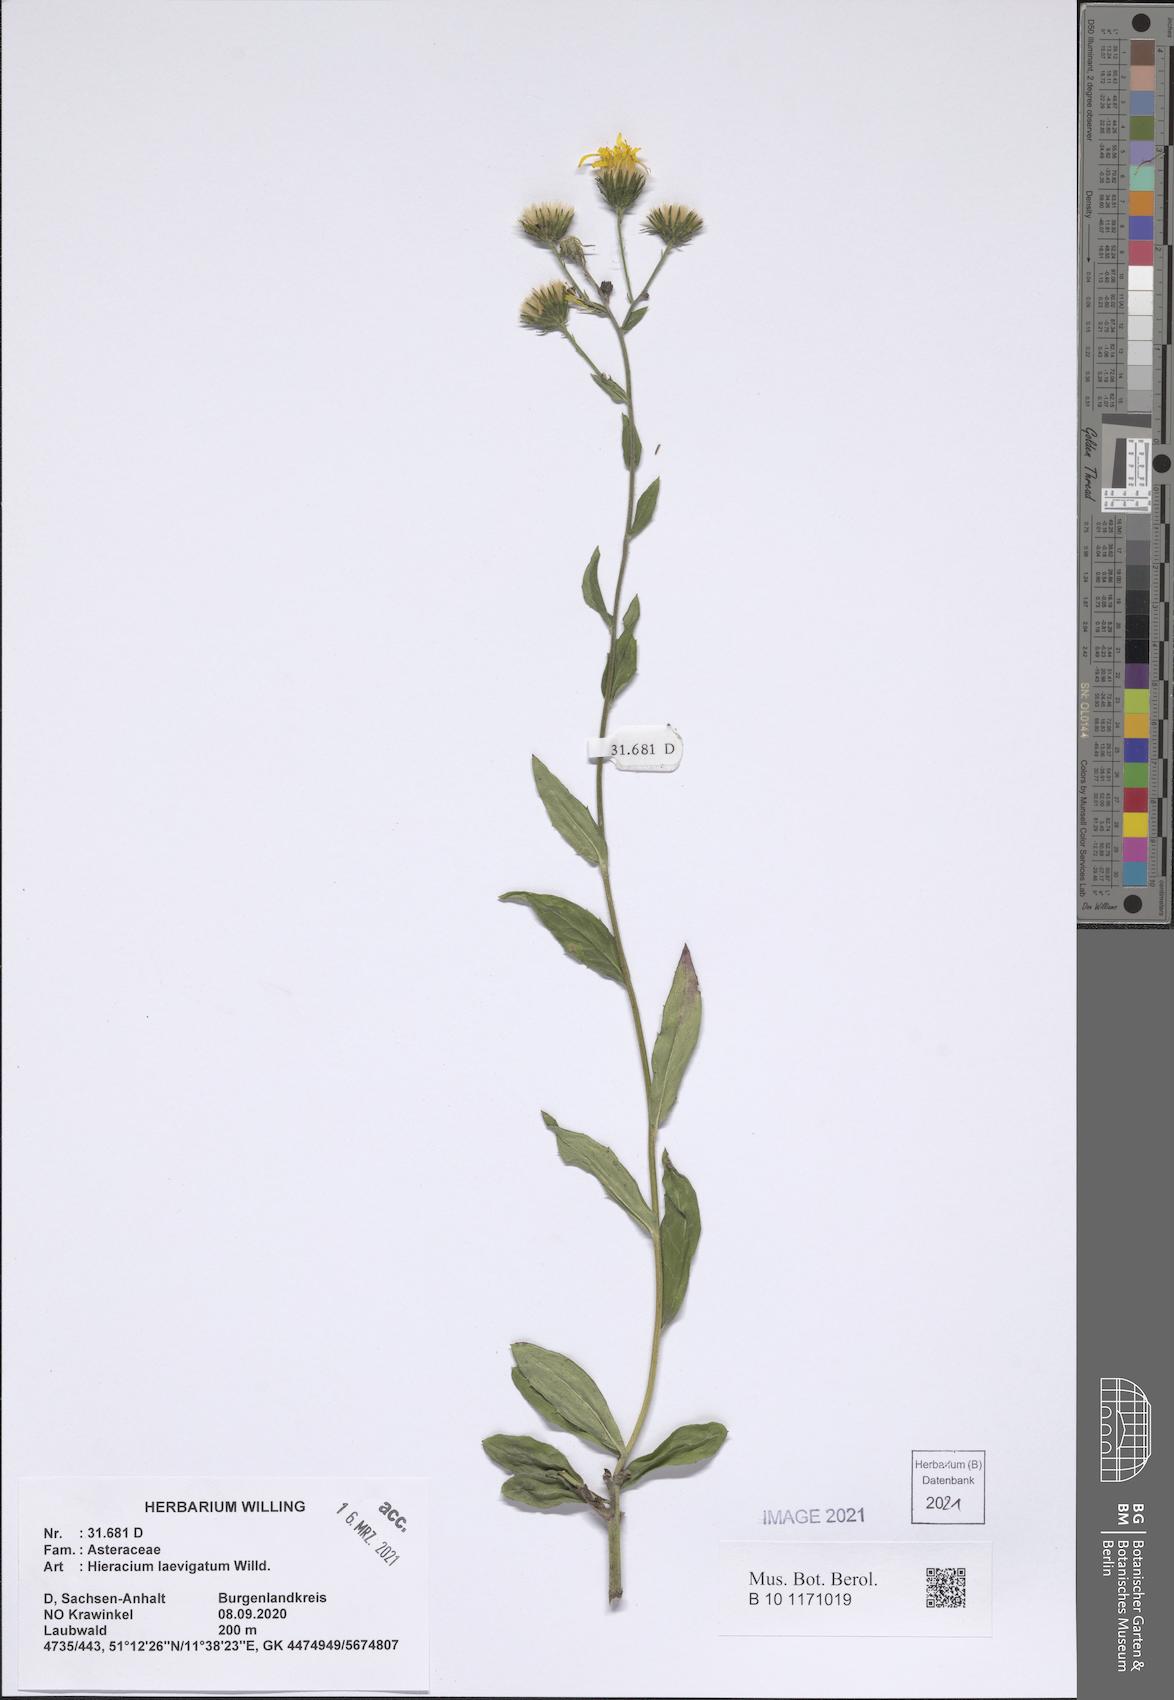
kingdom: Plantae
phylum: Tracheophyta
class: Magnoliopsida
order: Asterales
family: Asteraceae
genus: Hieracium
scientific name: Hieracium laevigatum
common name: Smooth hawkweed
